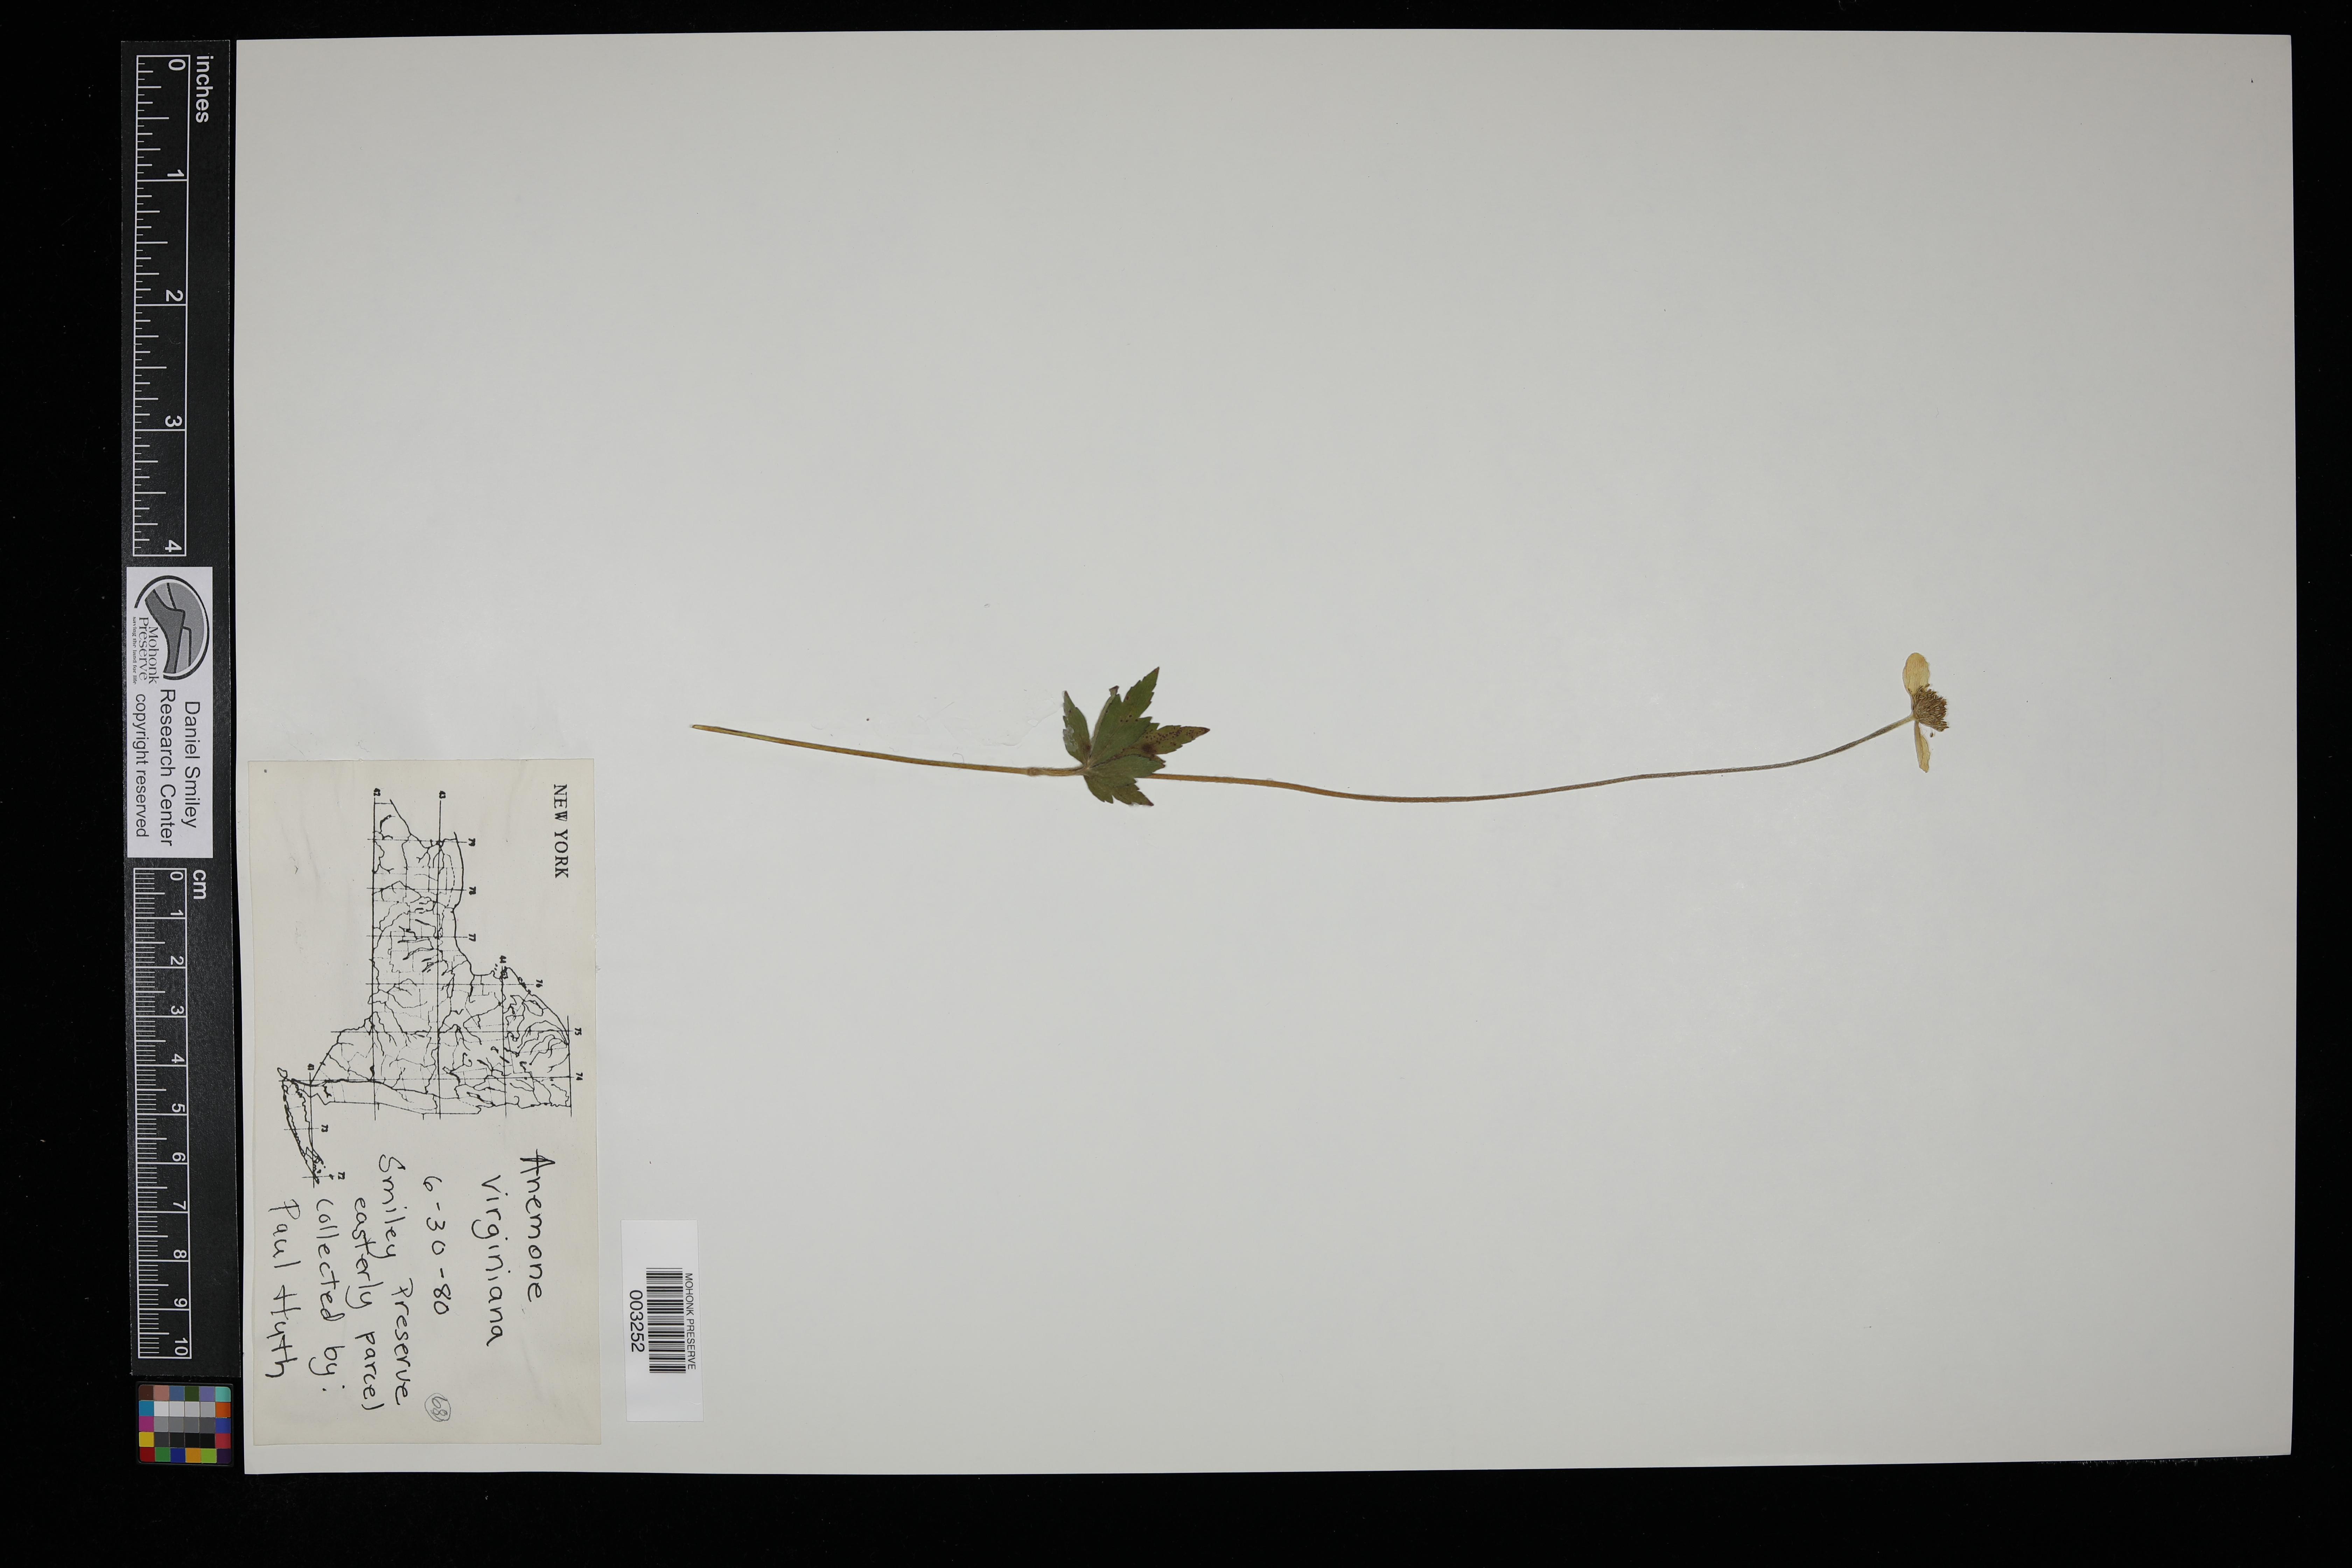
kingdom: Plantae
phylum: Tracheophyta
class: Magnoliopsida
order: Ranunculales
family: Ranunculaceae
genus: Anemone
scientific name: Anemone virginiana
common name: Tall anemone
